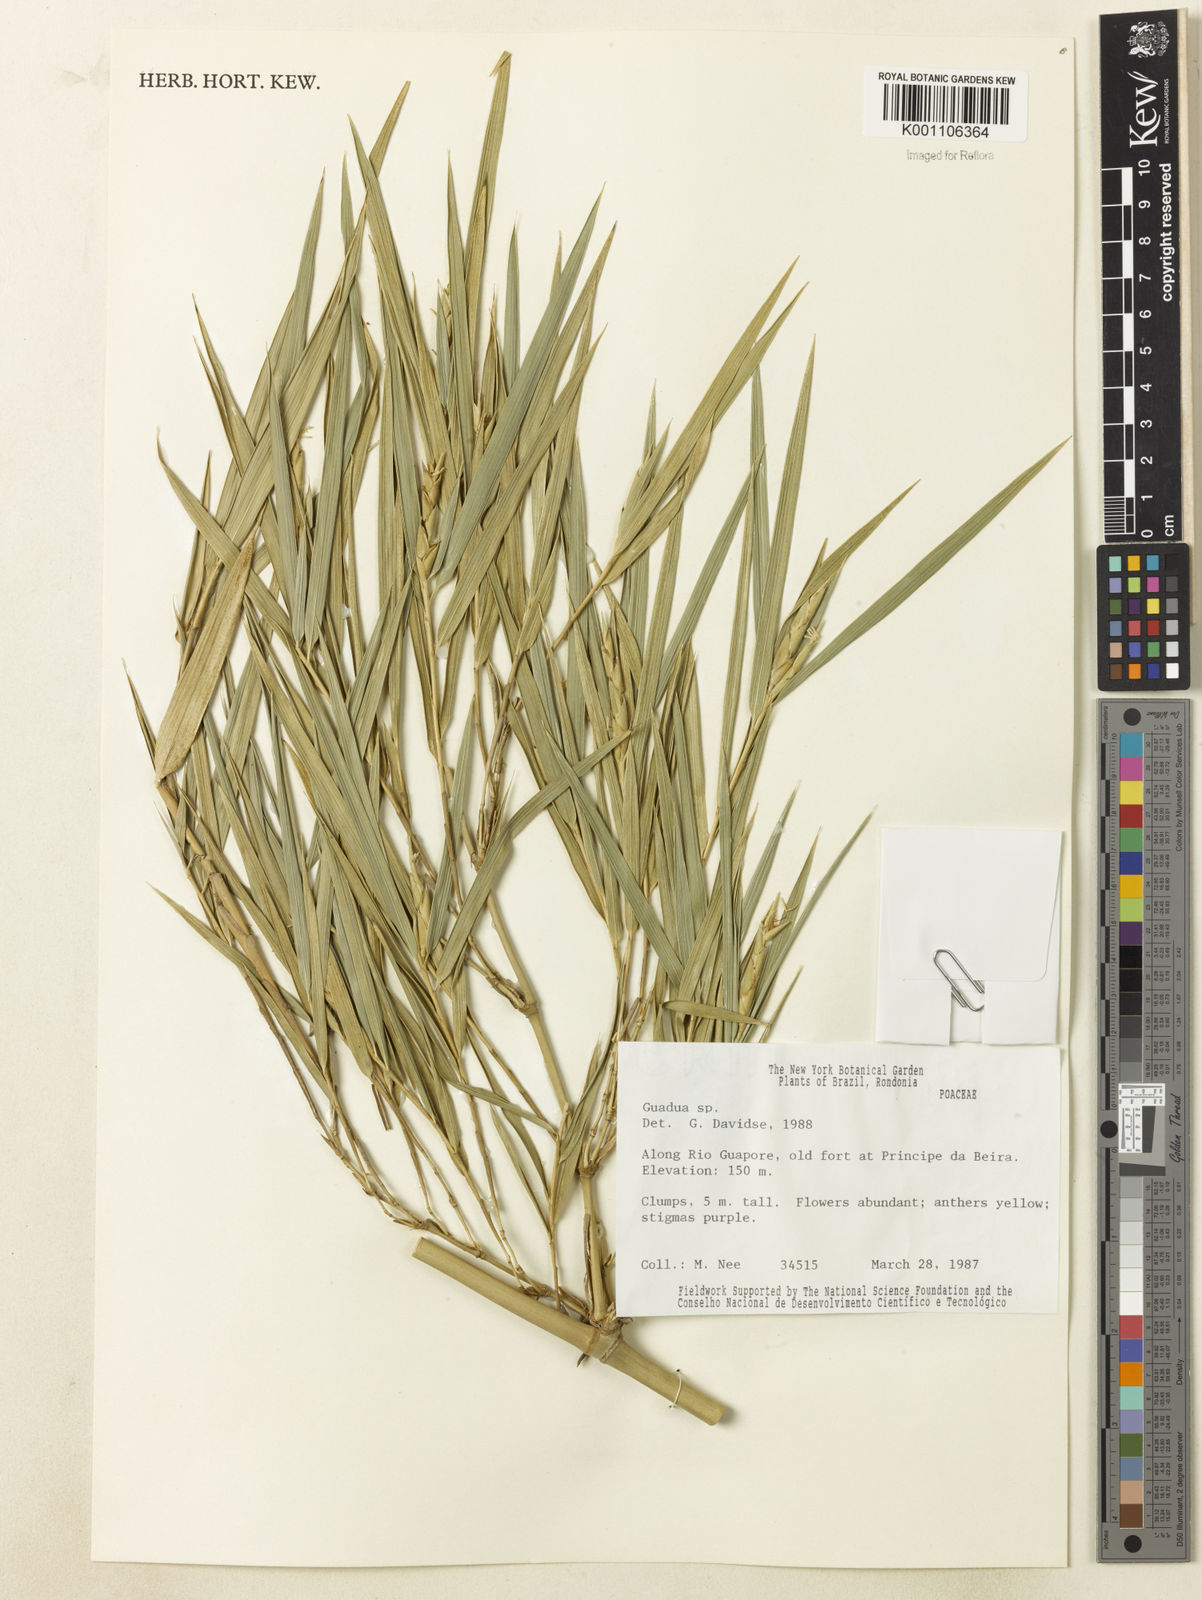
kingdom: Plantae
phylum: Tracheophyta
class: Liliopsida
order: Poales
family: Poaceae
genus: Guadua
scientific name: Guadua paraguayana
